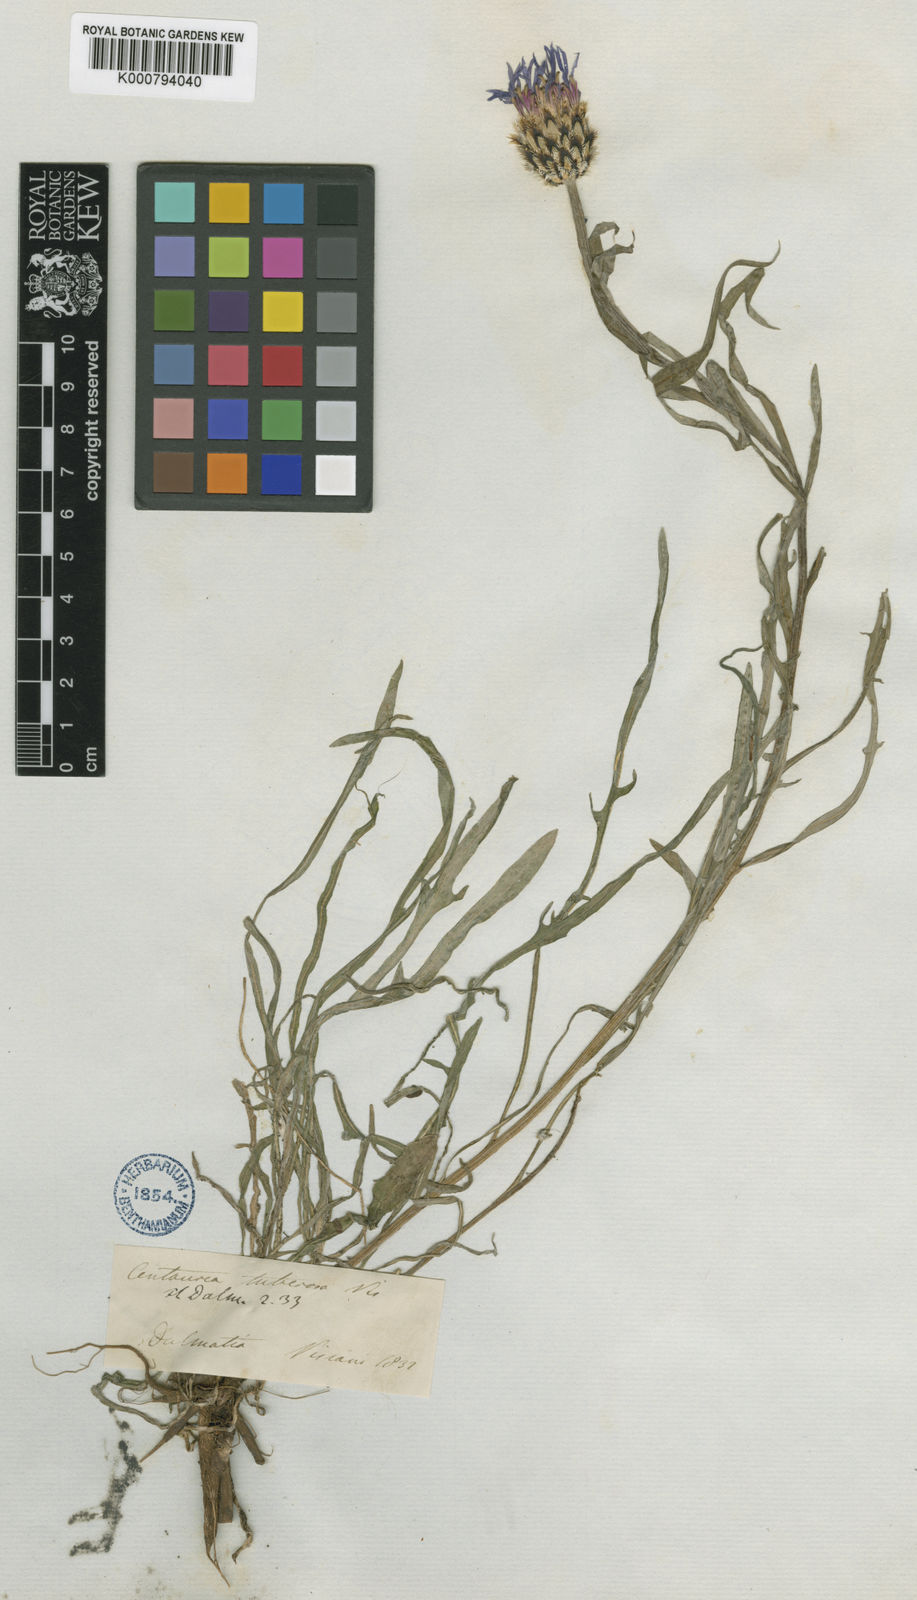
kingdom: Plantae
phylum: Tracheophyta
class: Magnoliopsida
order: Asterales
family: Asteraceae
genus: Centaurea
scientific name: Centaurea napulifera
